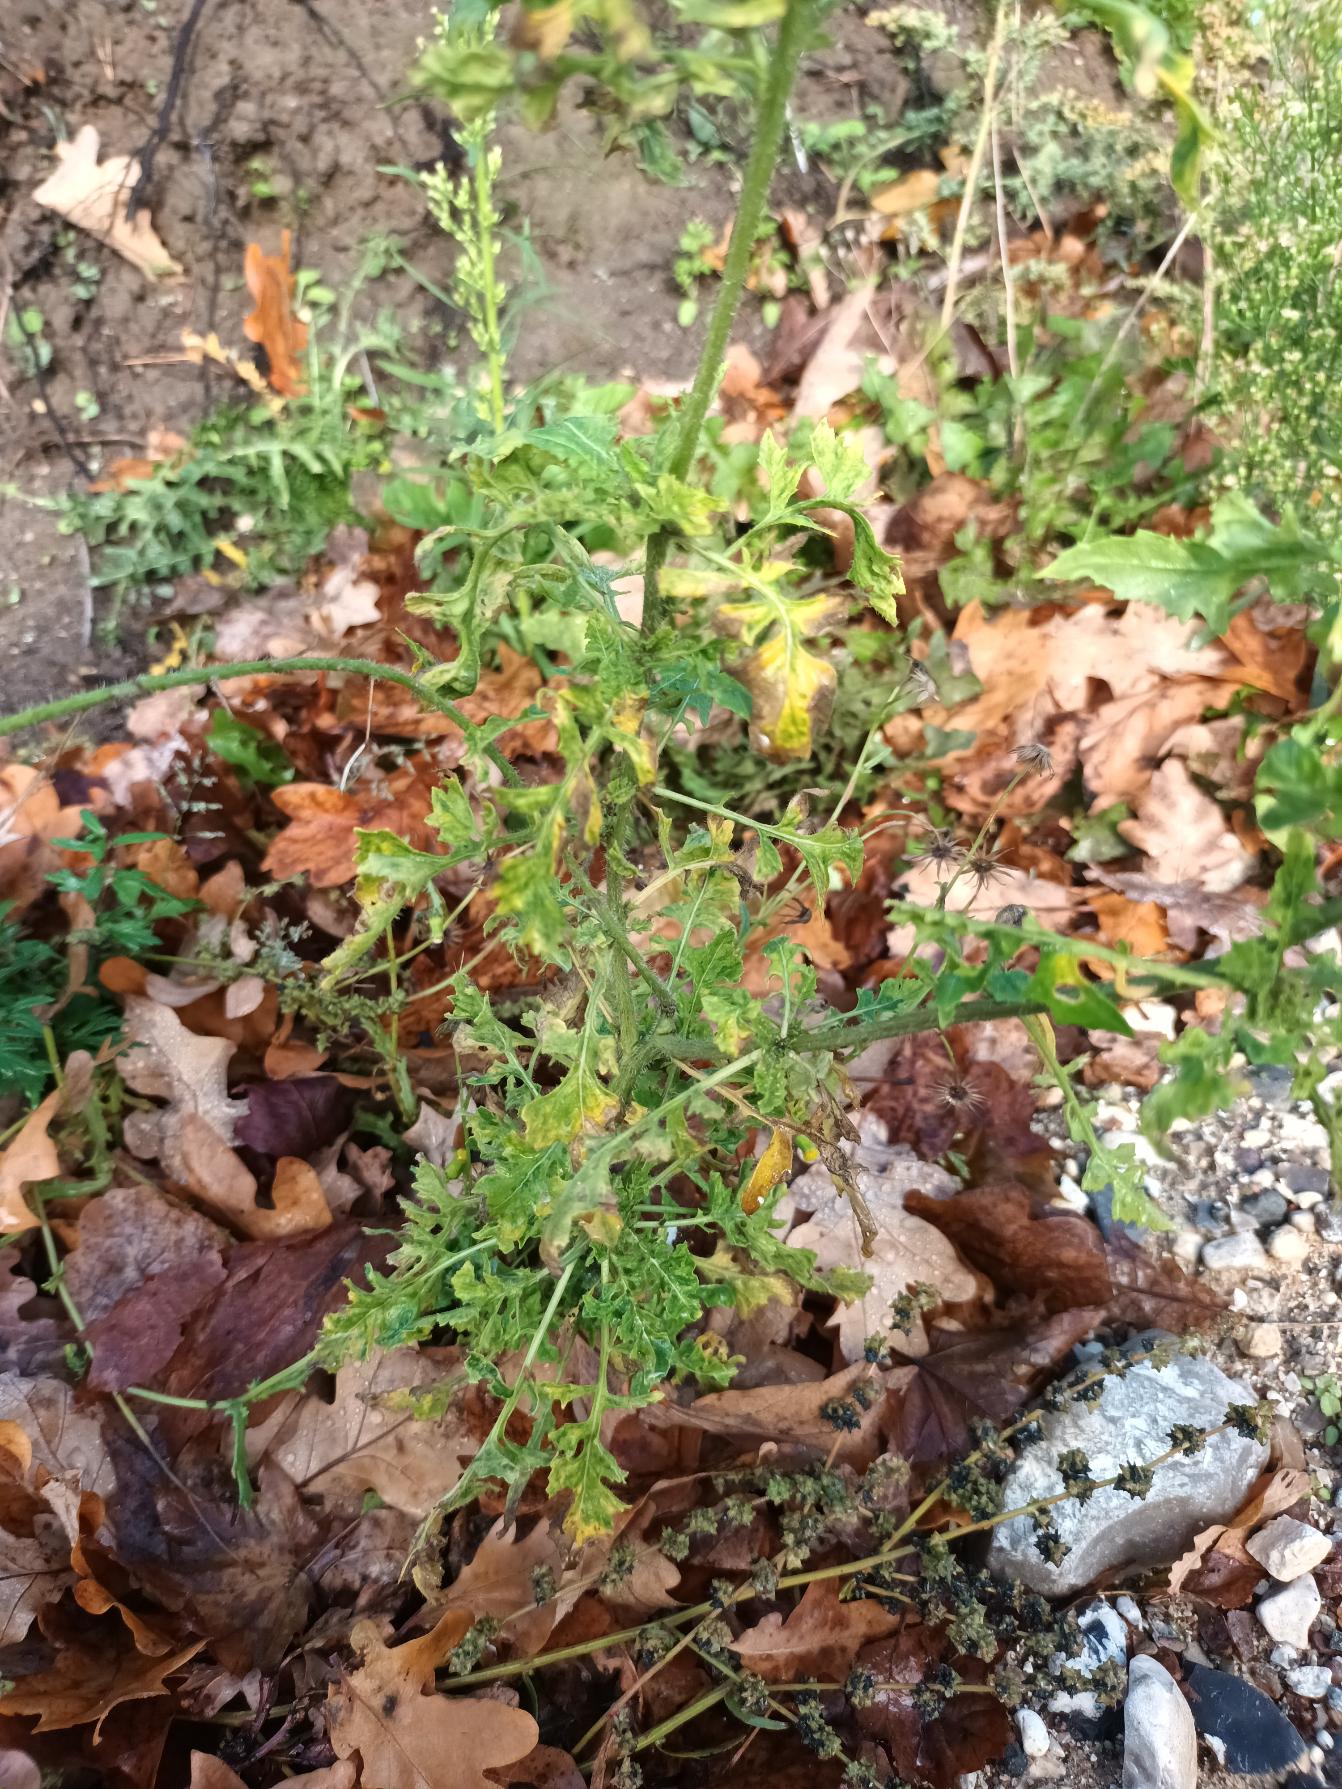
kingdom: Plantae
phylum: Tracheophyta
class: Magnoliopsida
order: Brassicales
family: Brassicaceae
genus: Sisymbrium
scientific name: Sisymbrium loeselii
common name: Stivhåret vejsennep
